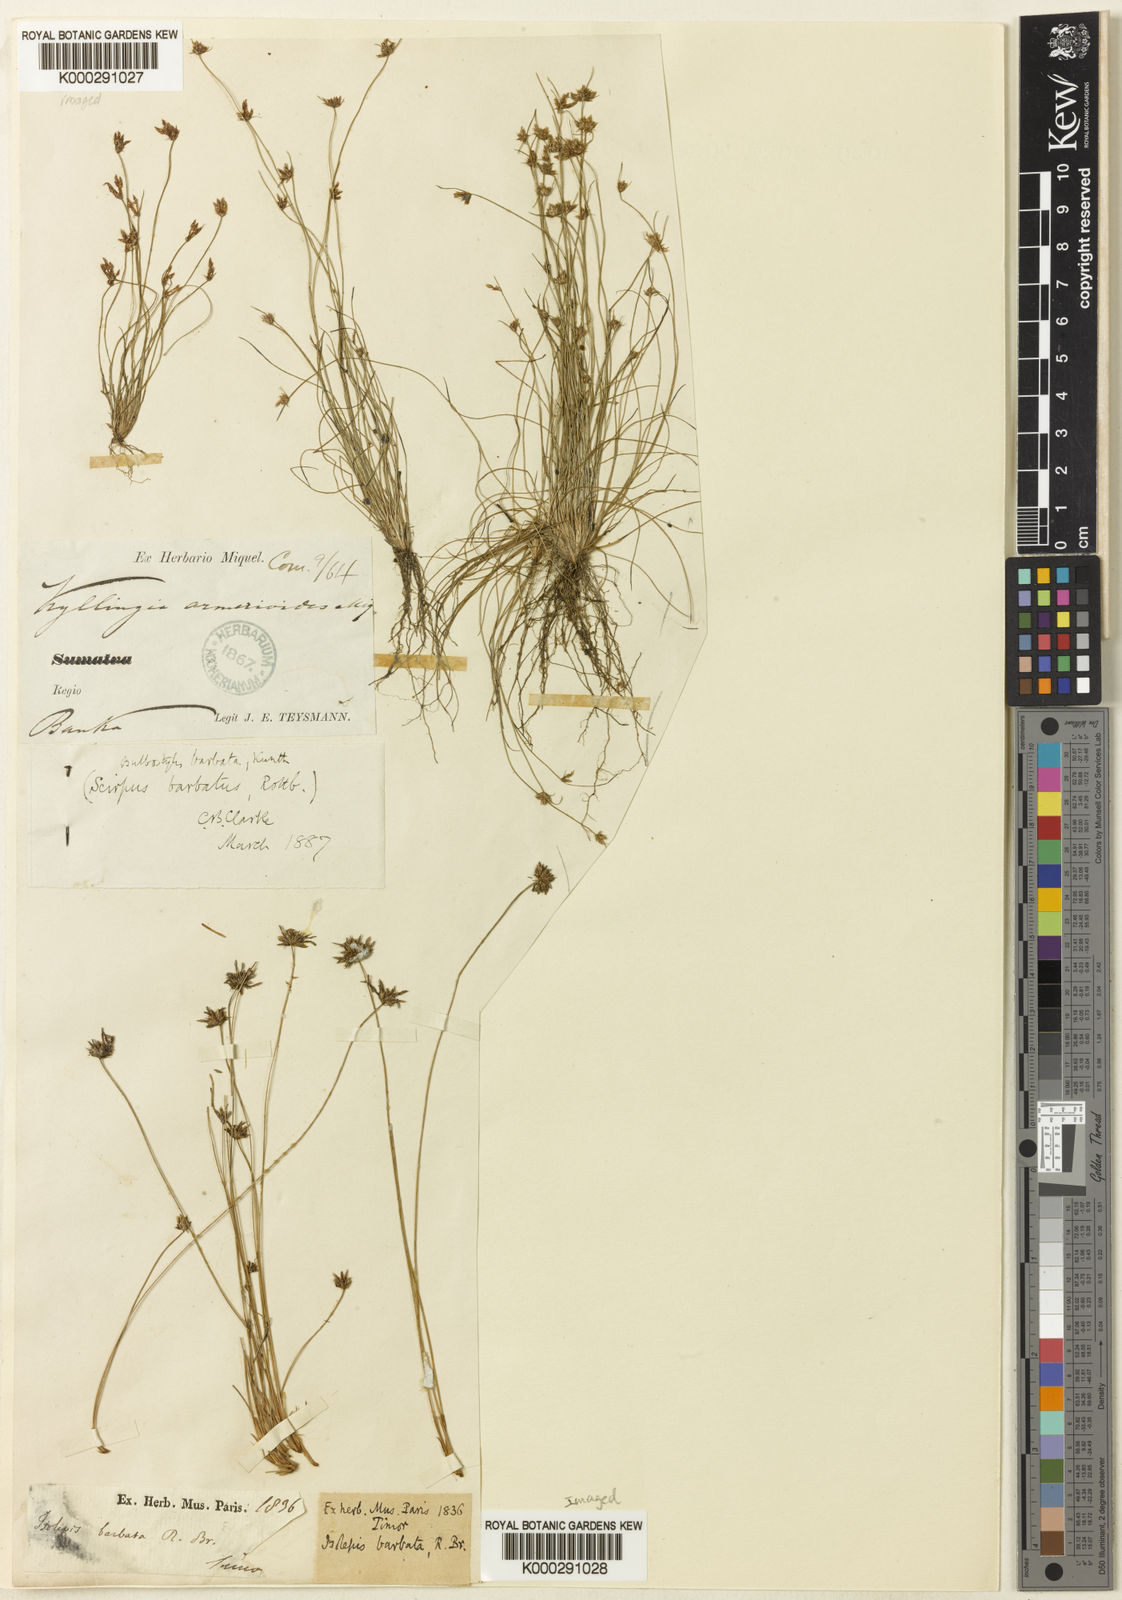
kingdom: Plantae
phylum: Tracheophyta
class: Liliopsida
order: Poales
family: Cyperaceae
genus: Bulbostylis
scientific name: Bulbostylis barbata
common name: Watergrass
